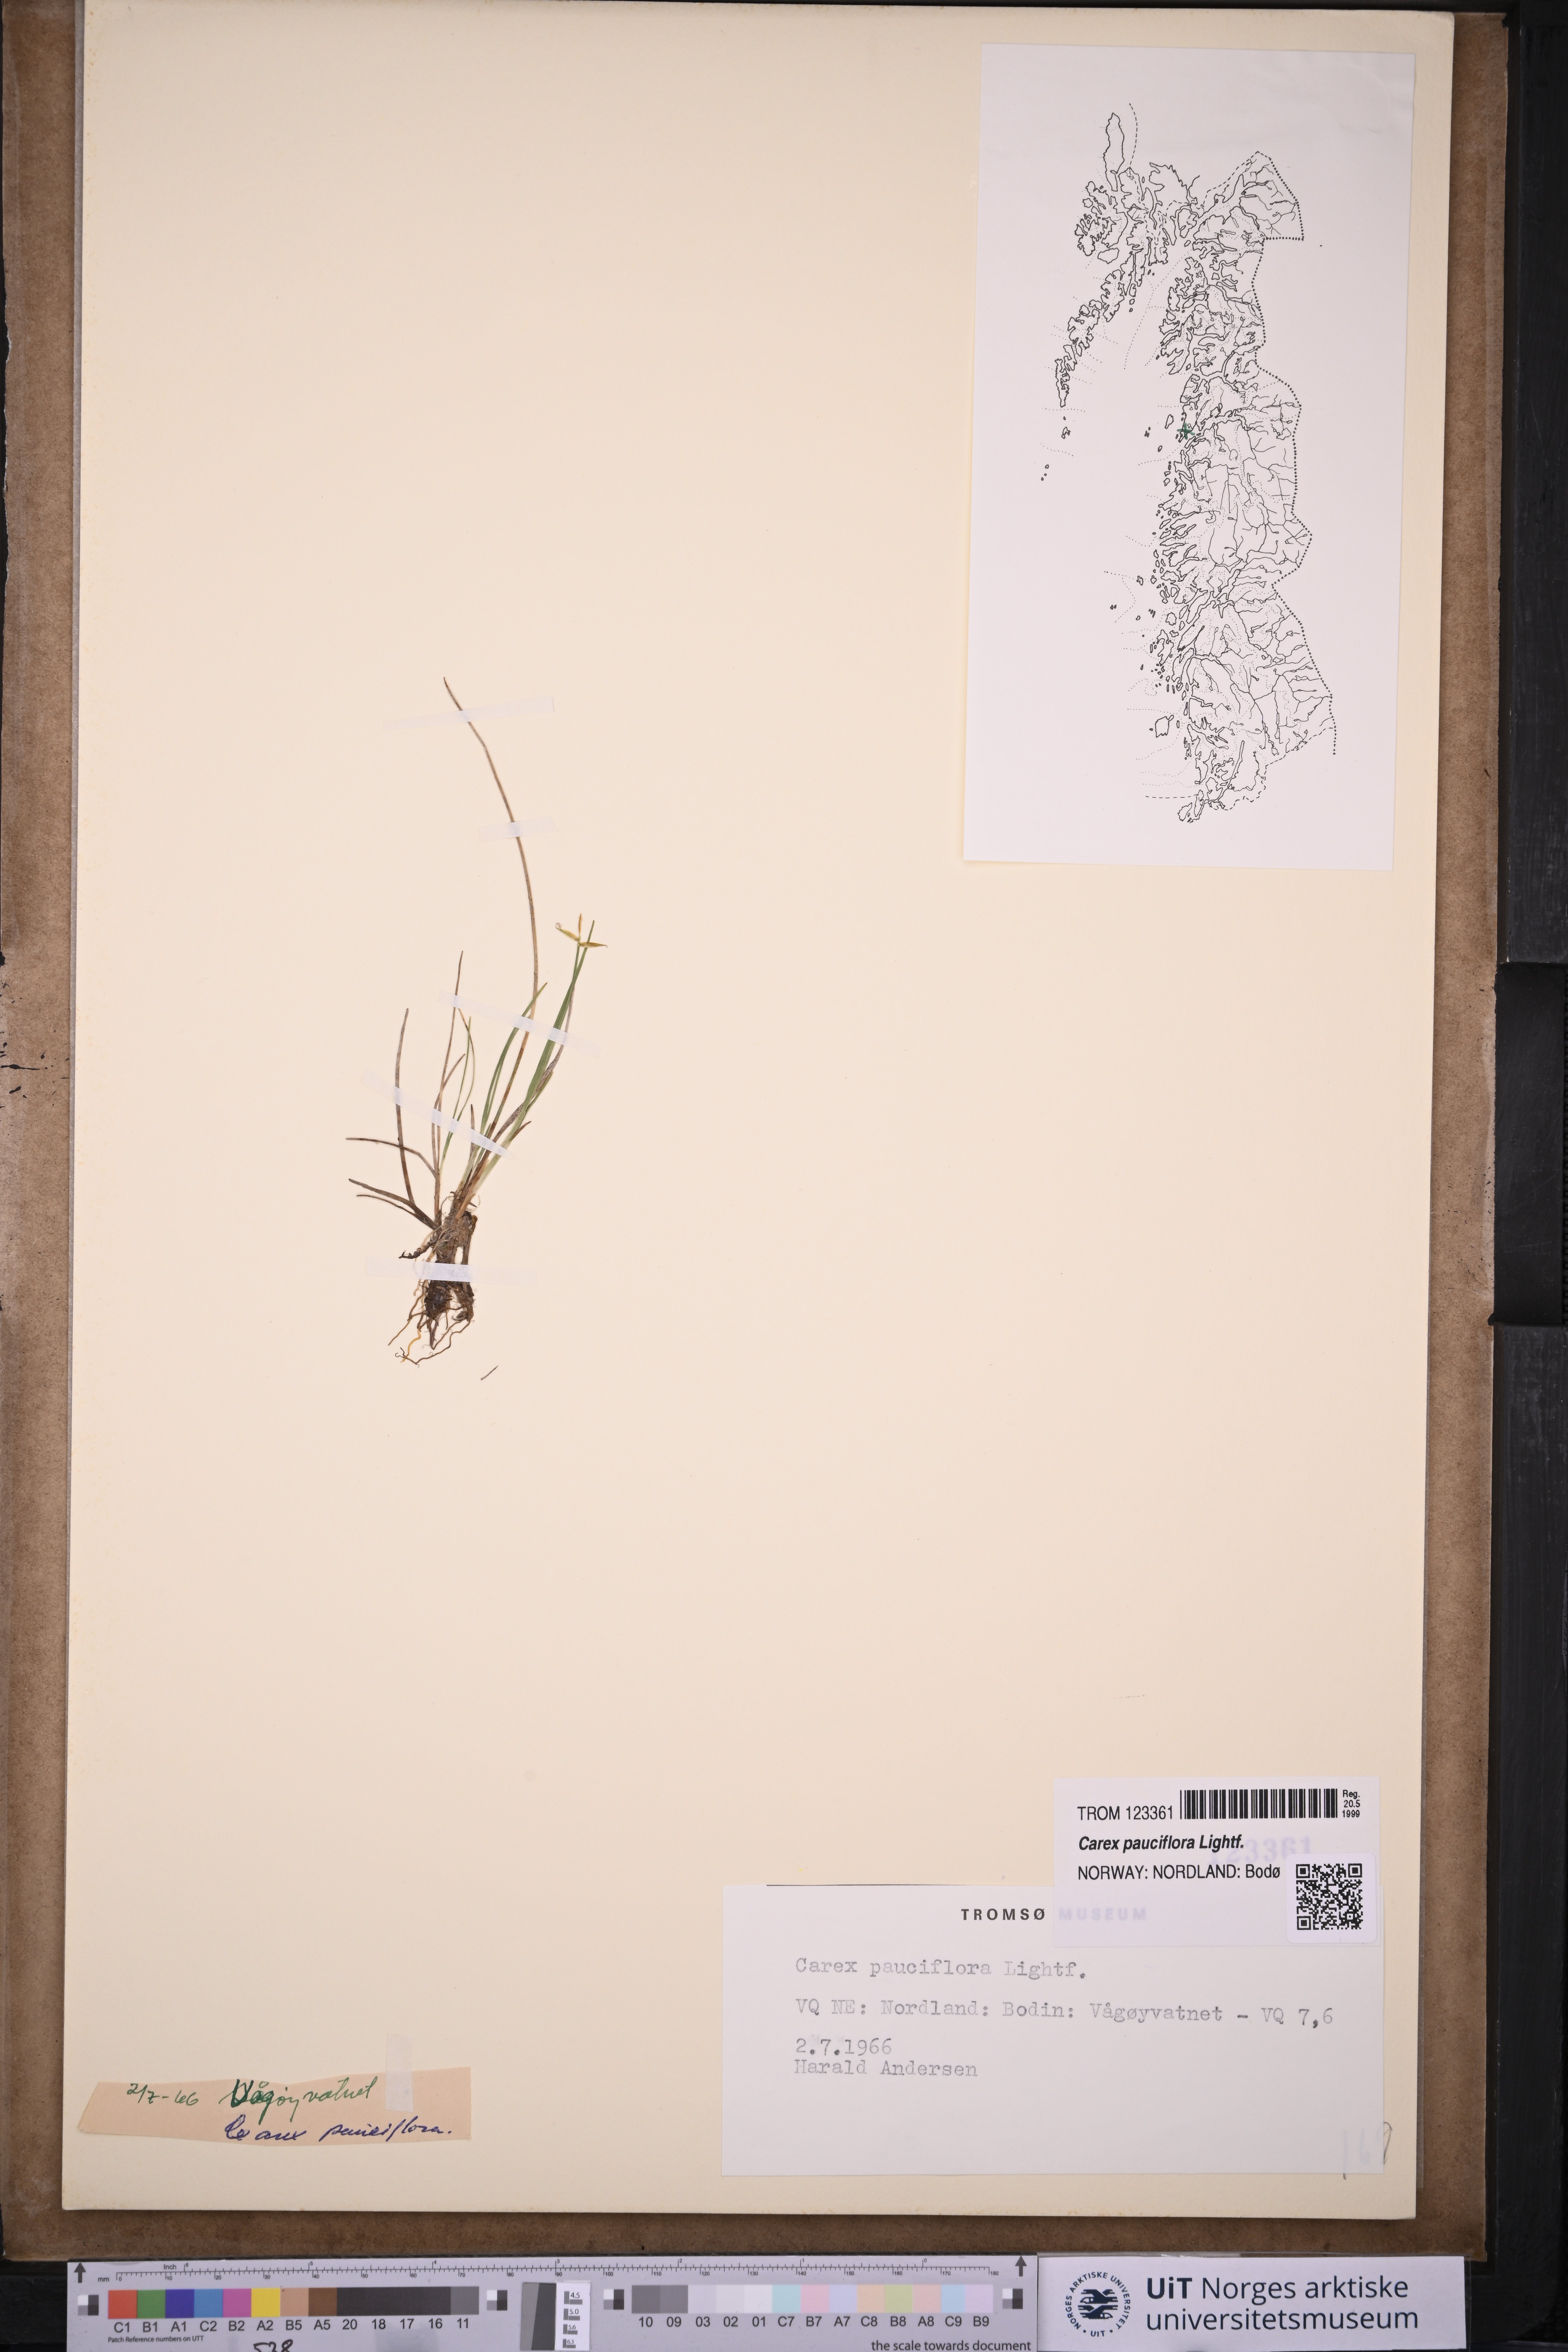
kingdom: Plantae
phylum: Tracheophyta
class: Liliopsida
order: Poales
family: Cyperaceae
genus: Carex
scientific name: Carex pauciflora
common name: Few-flowered sedge
